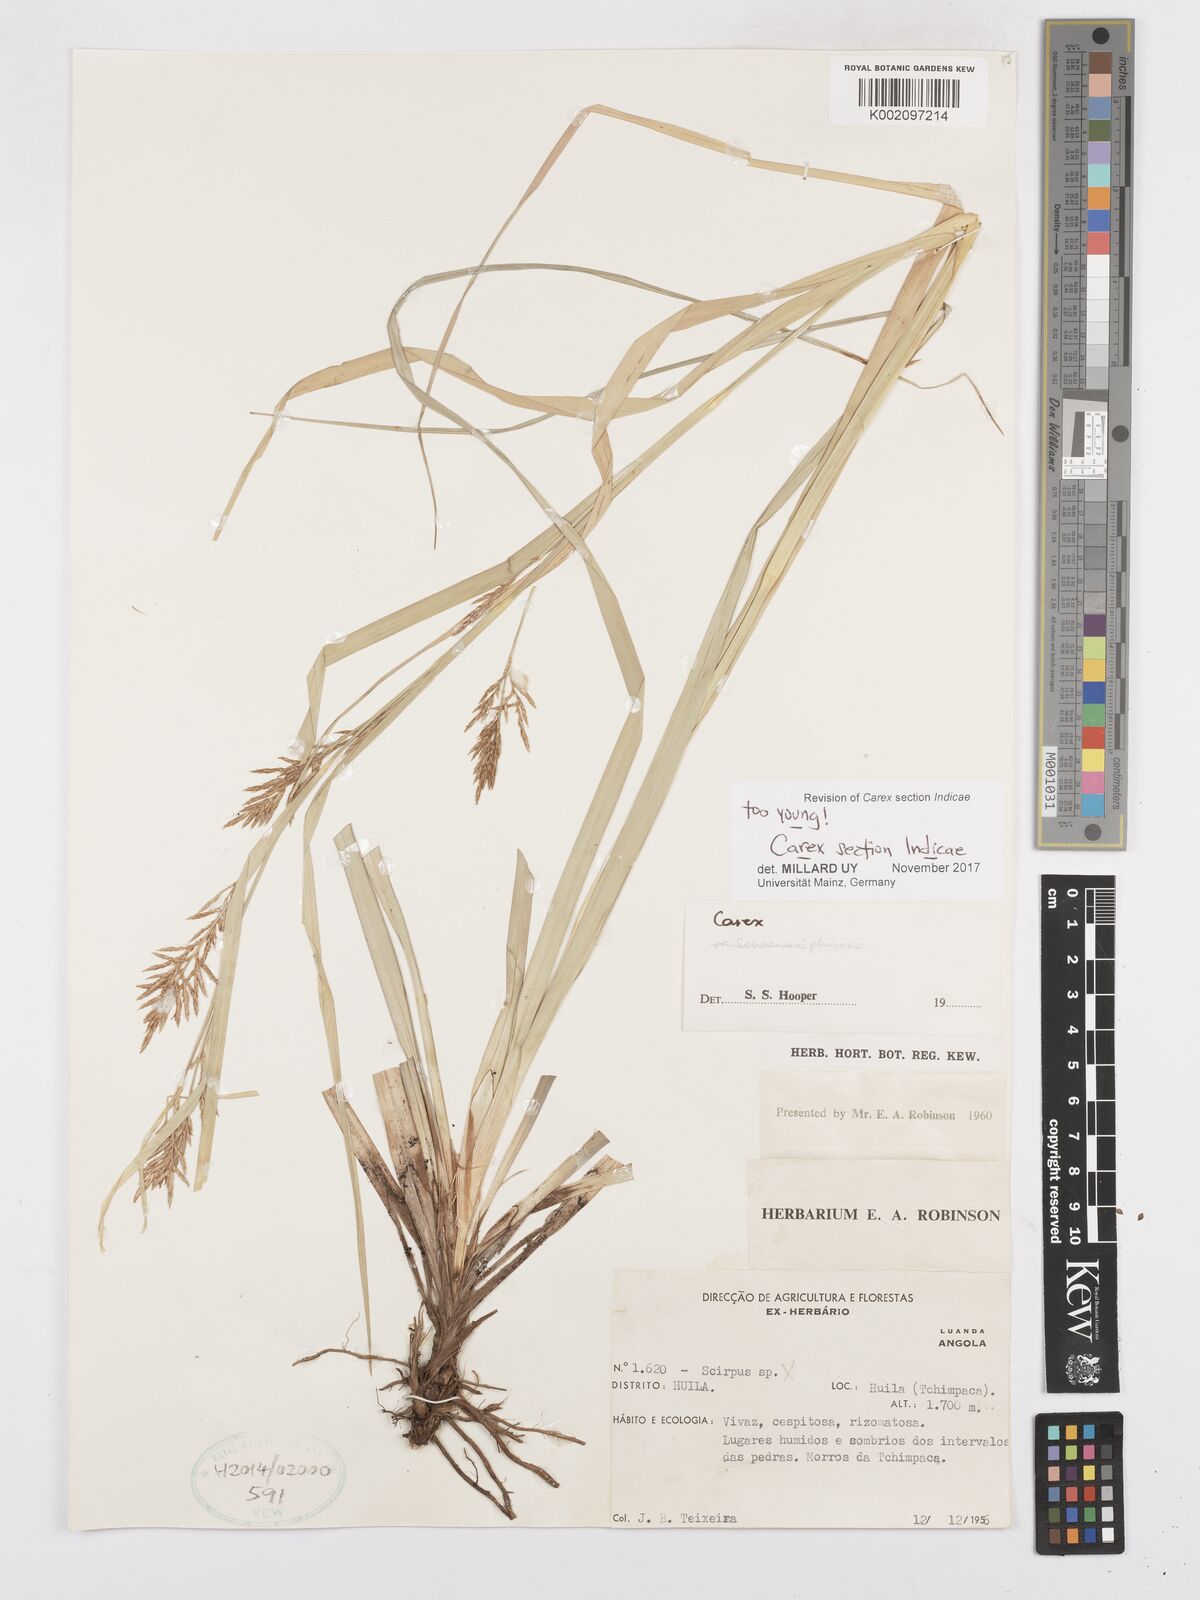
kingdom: Plantae
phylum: Tracheophyta
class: Liliopsida
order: Poales
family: Cyperaceae
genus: Carex
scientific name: Carex
